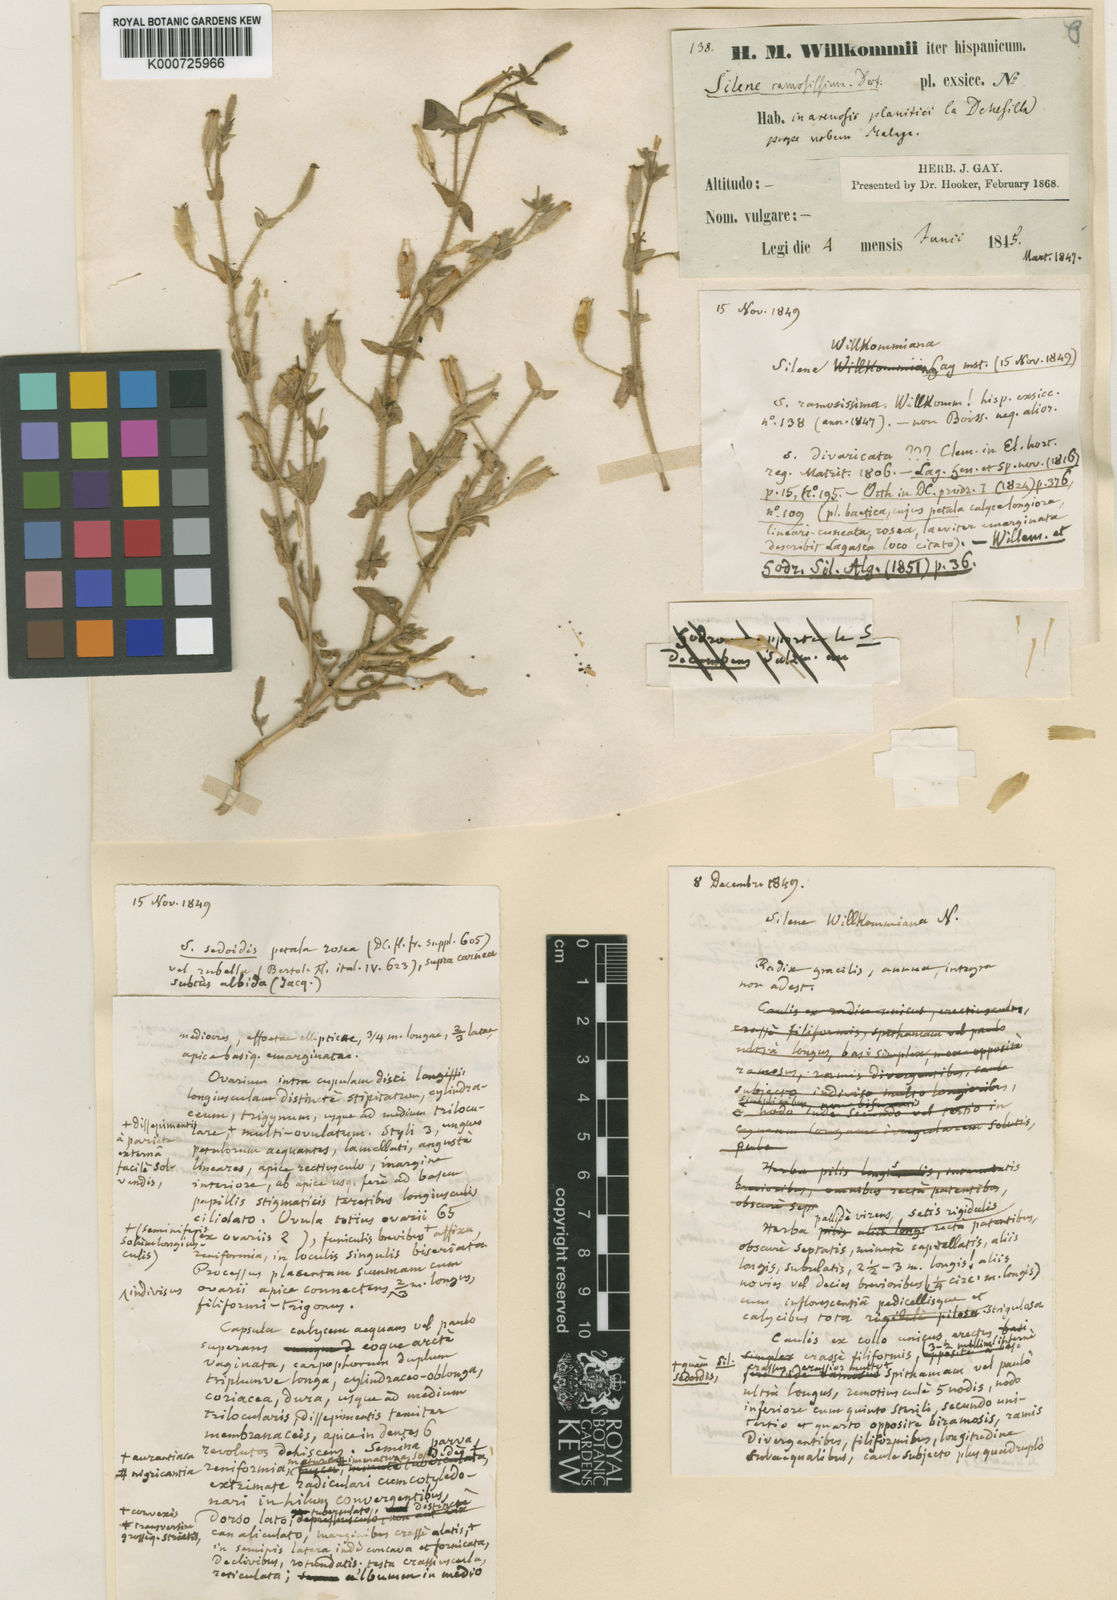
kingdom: Plantae
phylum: Tracheophyta
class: Magnoliopsida
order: Caryophyllales
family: Caryophyllaceae
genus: Silene
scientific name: Silene aellenii
